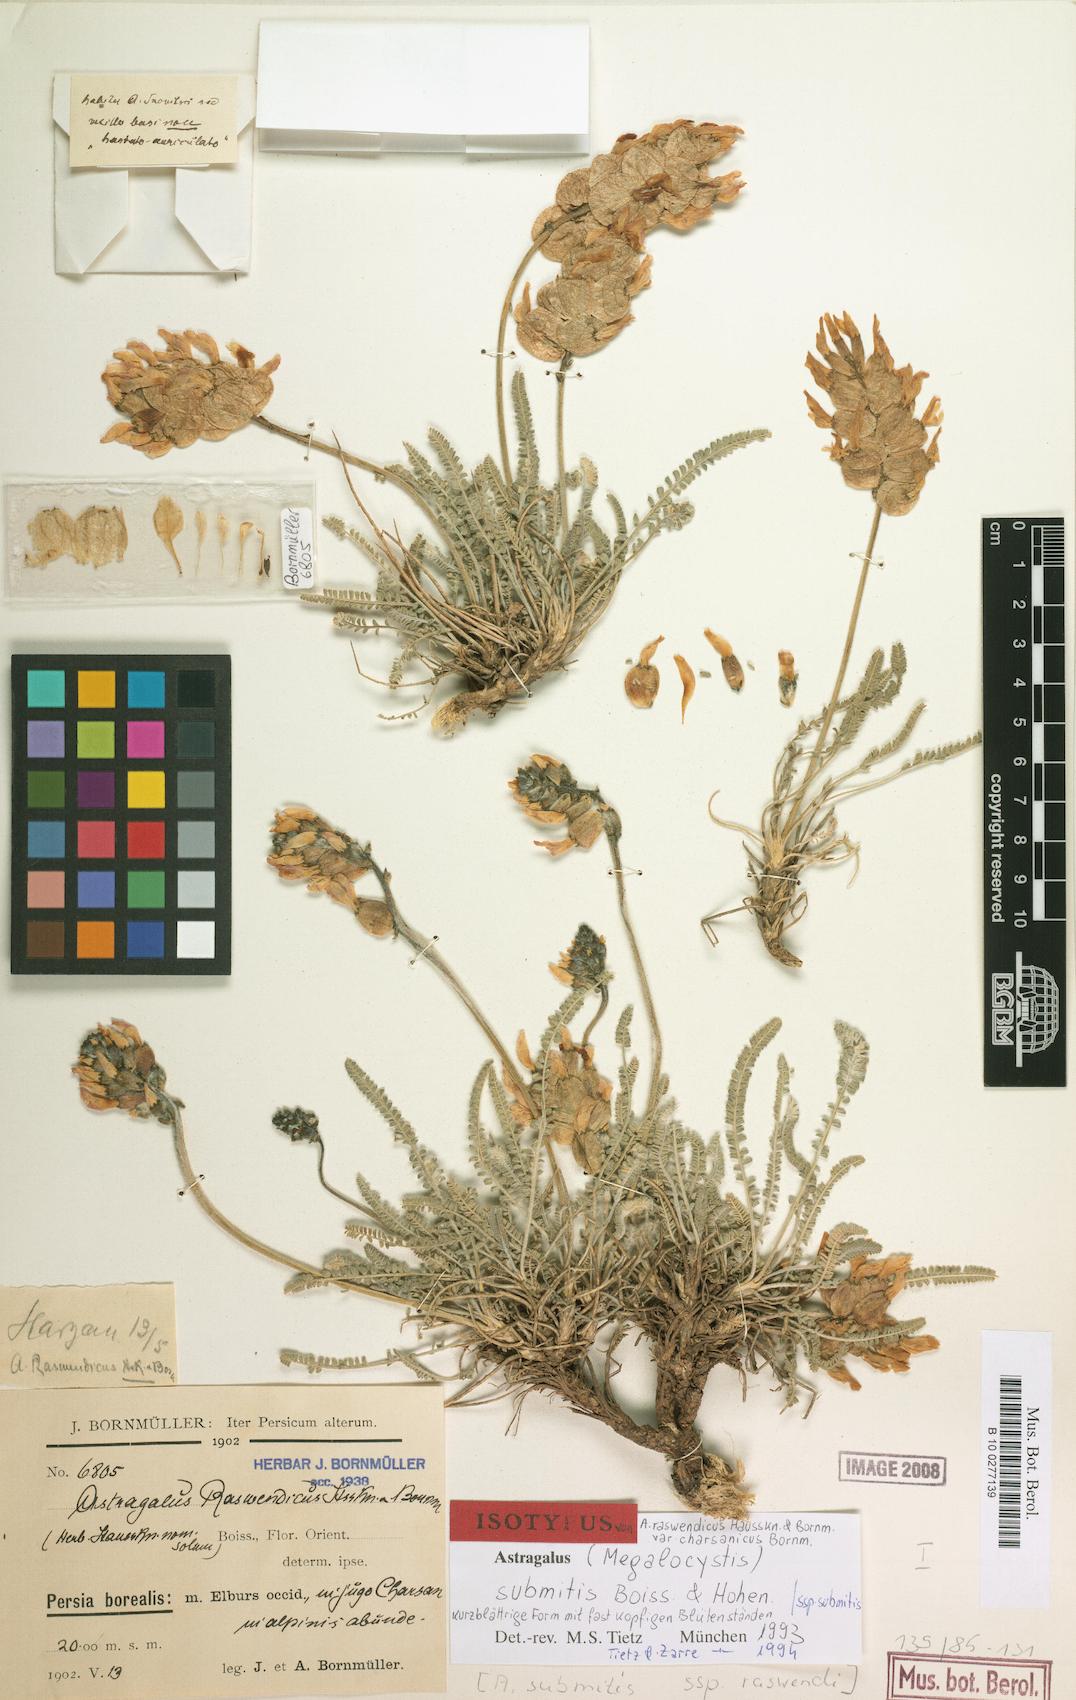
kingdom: Plantae
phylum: Tracheophyta
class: Magnoliopsida
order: Fabales
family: Fabaceae
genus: Astragalus
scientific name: Astragalus submitis
